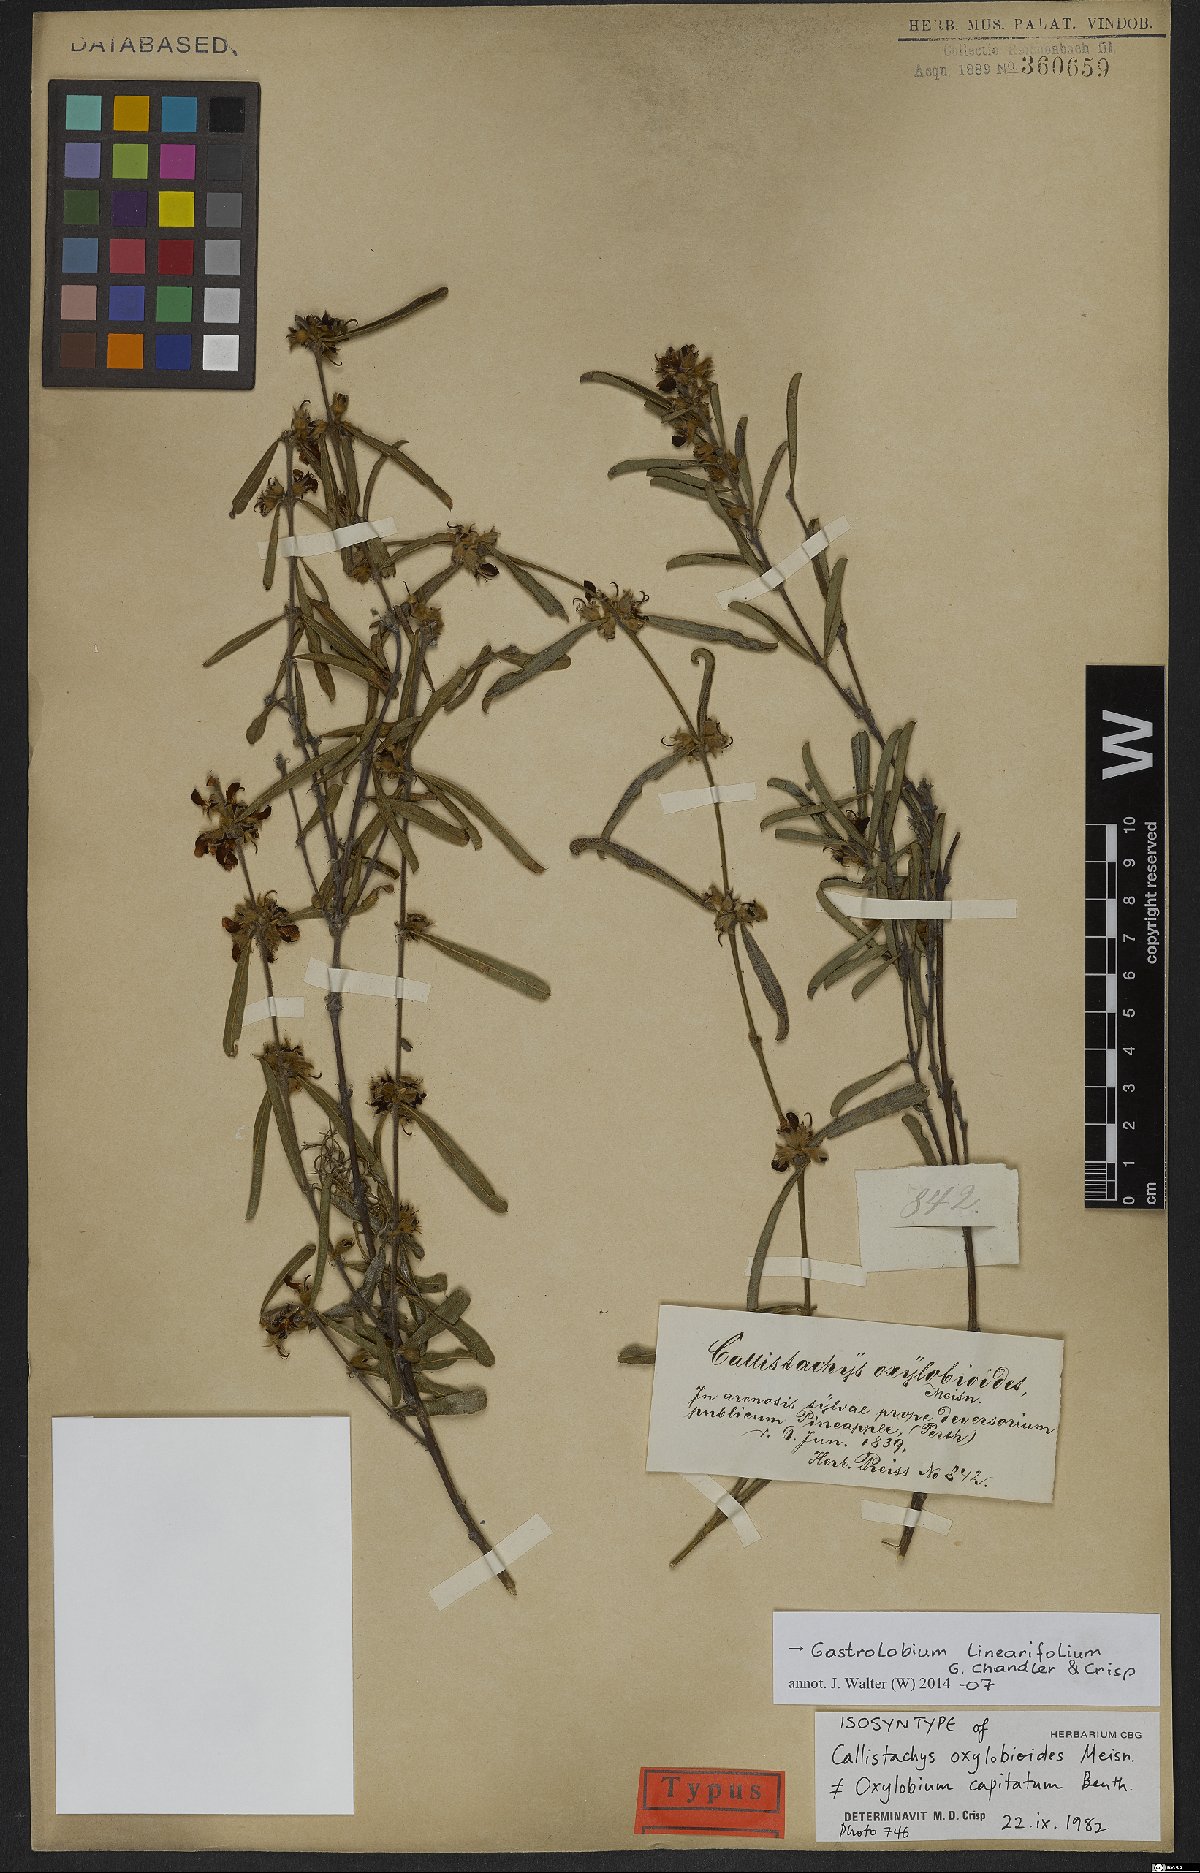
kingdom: Plantae
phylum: Tracheophyta
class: Magnoliopsida
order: Fabales
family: Fabaceae
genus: Gastrolobium
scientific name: Gastrolobium linearifolium
